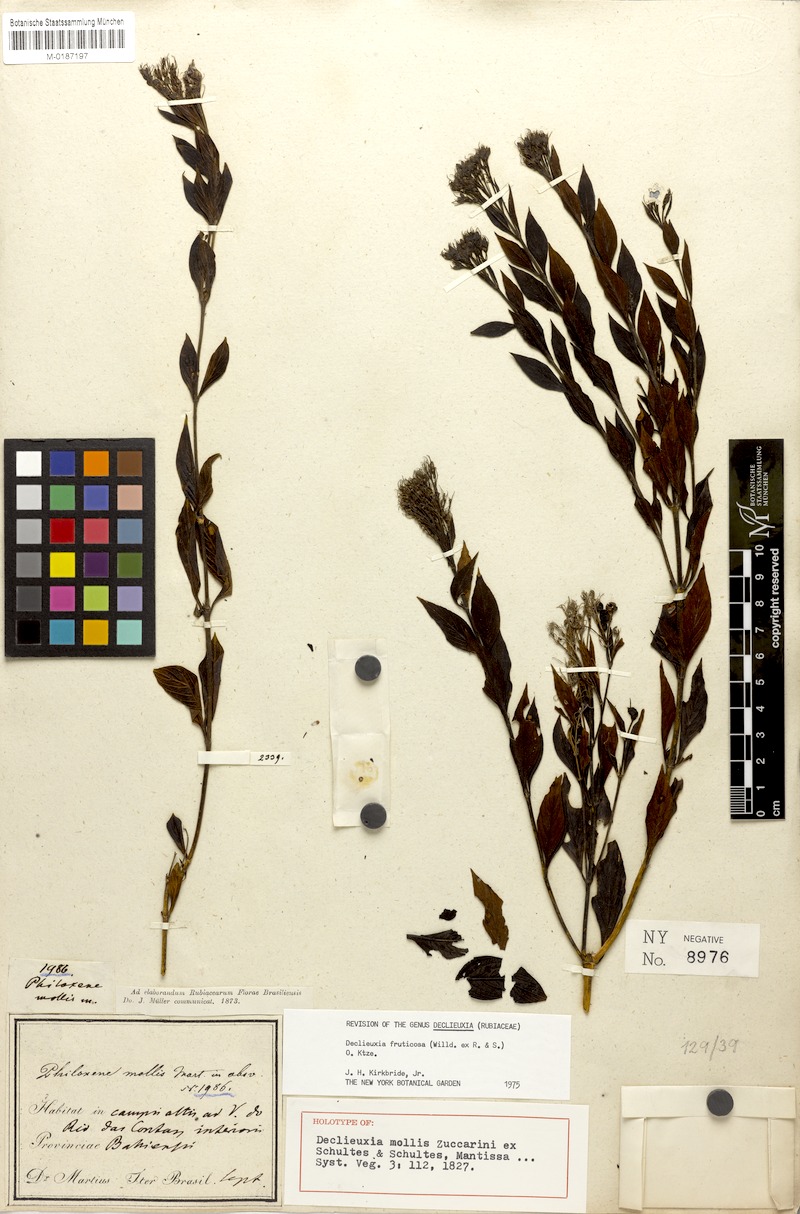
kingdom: Plantae
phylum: Tracheophyta
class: Magnoliopsida
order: Gentianales
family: Rubiaceae
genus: Declieuxia
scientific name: Declieuxia fruticosa
